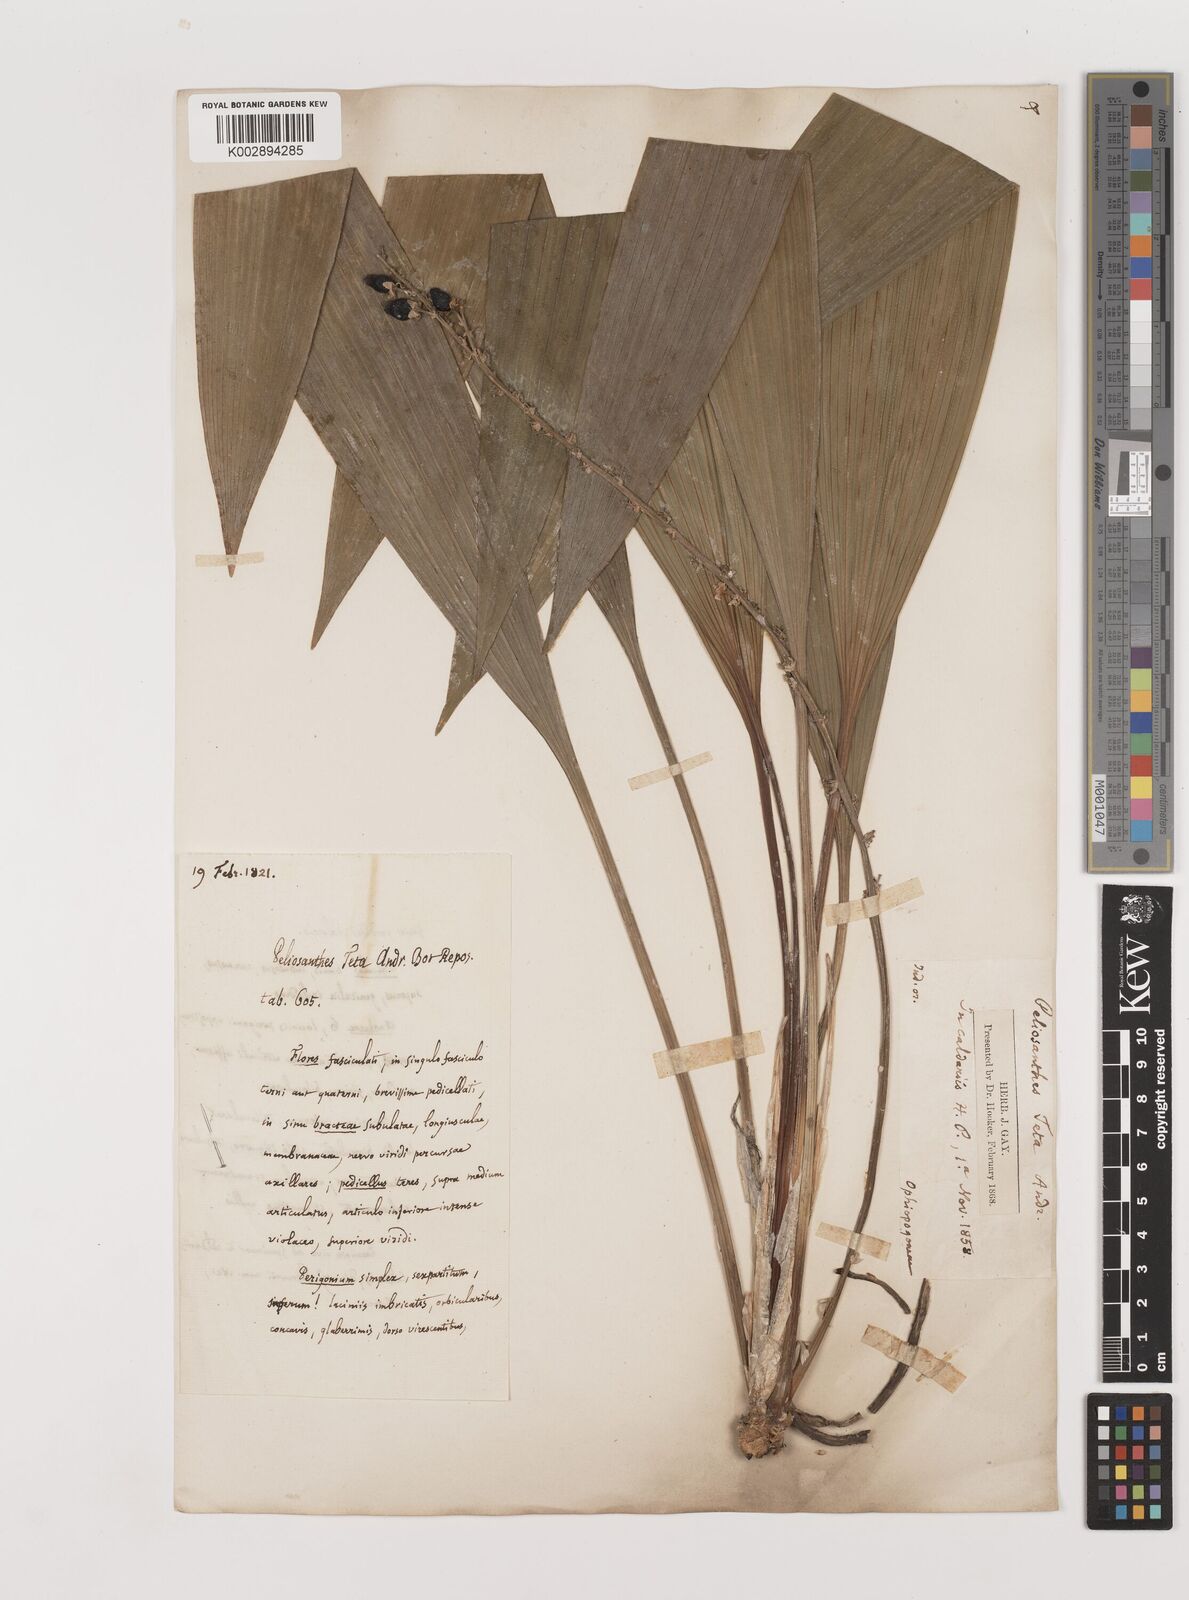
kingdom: Plantae
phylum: Tracheophyta
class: Liliopsida
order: Asparagales
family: Asparagaceae
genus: Peliosanthes
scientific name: Peliosanthes teta
